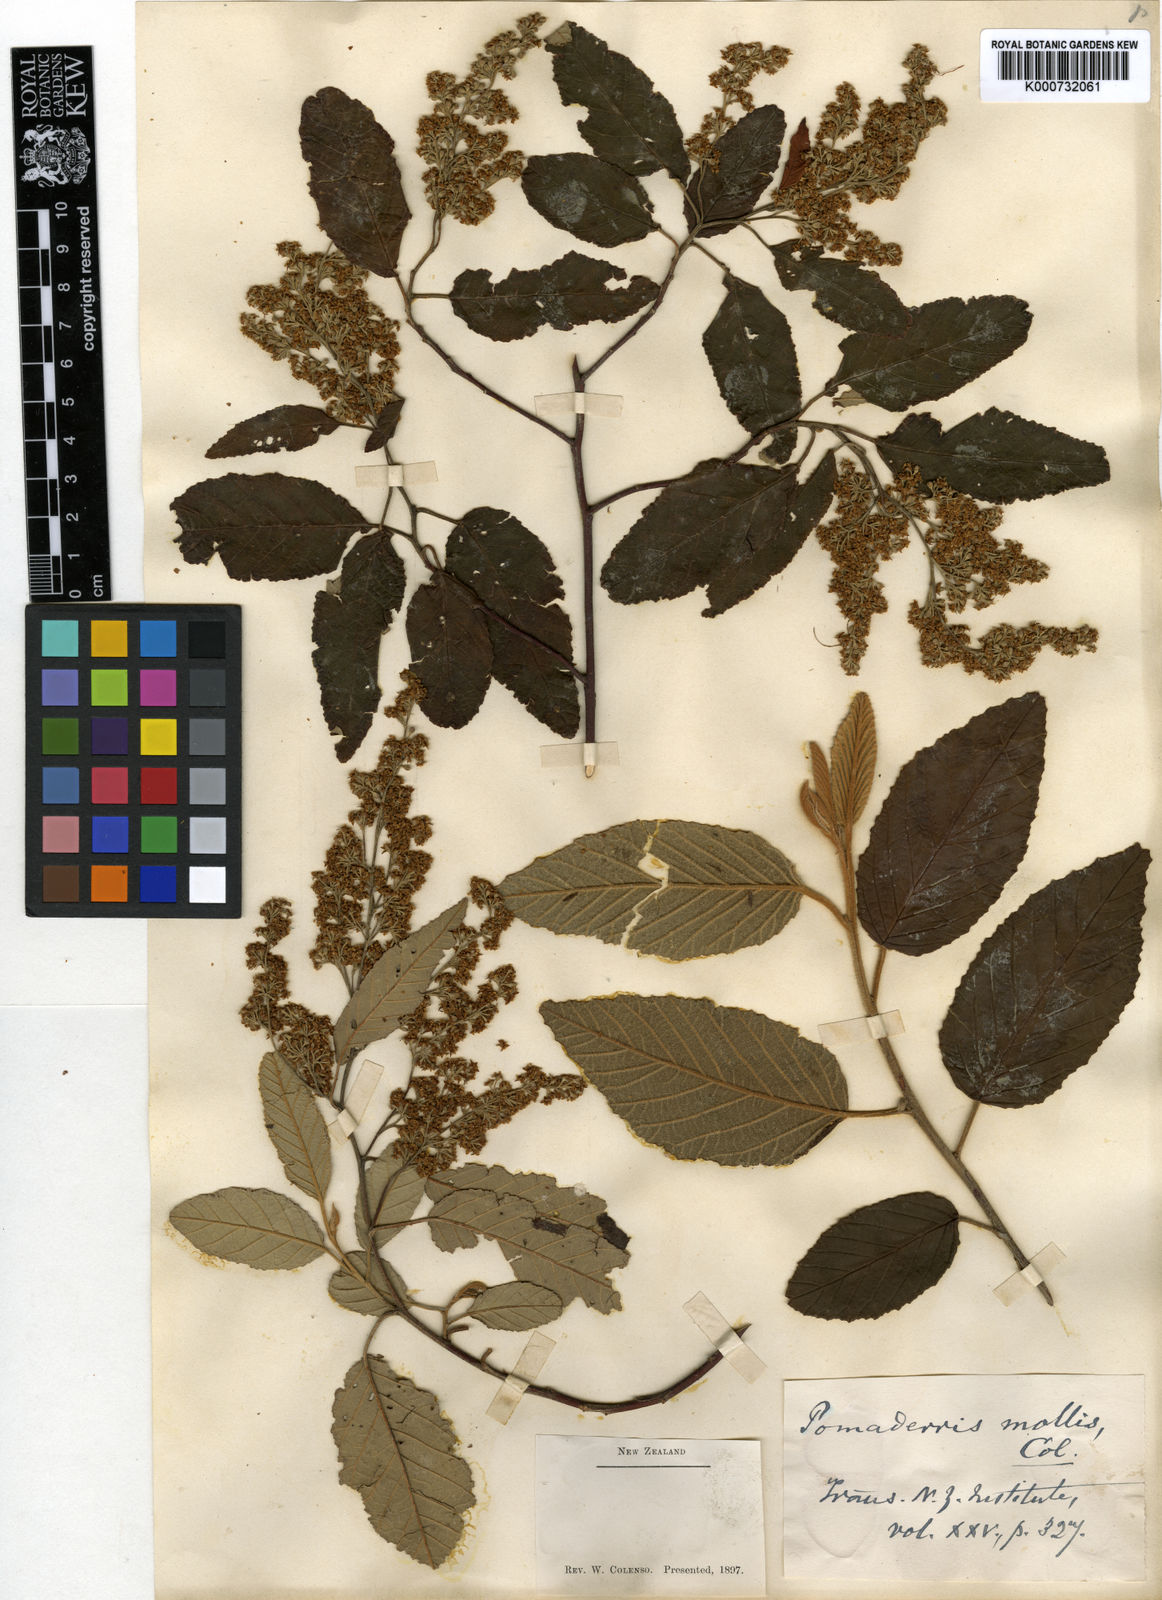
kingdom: Plantae
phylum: Tracheophyta
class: Magnoliopsida
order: Rosales
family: Rhamnaceae
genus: Pomaderris
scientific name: Pomaderris apetala
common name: Hazel pomaderris
